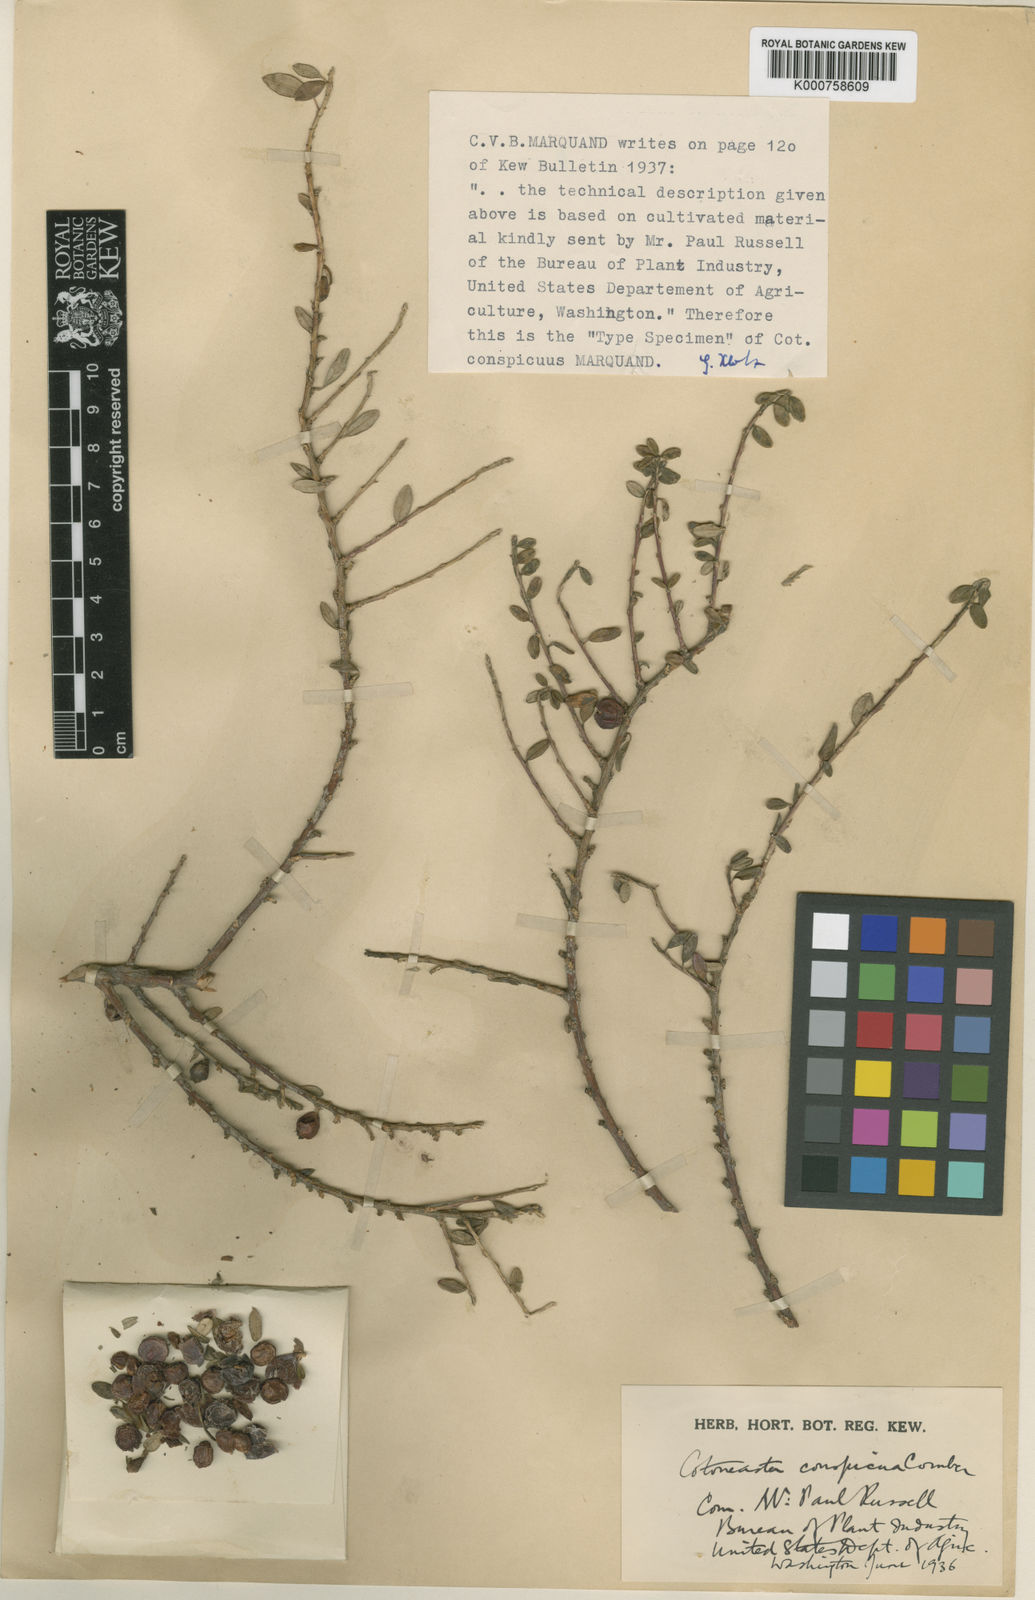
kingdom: Plantae
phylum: Tracheophyta
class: Magnoliopsida
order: Rosales
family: Rosaceae
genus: Cotoneaster
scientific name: Cotoneaster conspicuus
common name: Tibetan cotoneaster
